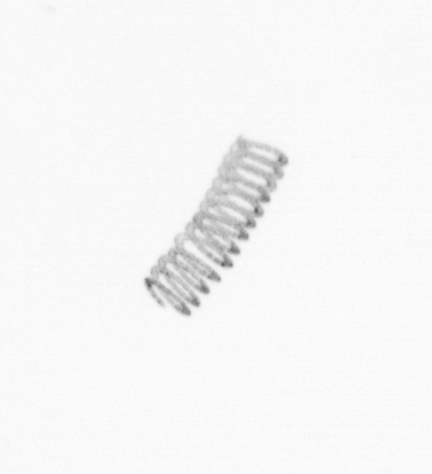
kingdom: Chromista
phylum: Ochrophyta
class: Bacillariophyceae
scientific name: Bacillariophyceae
